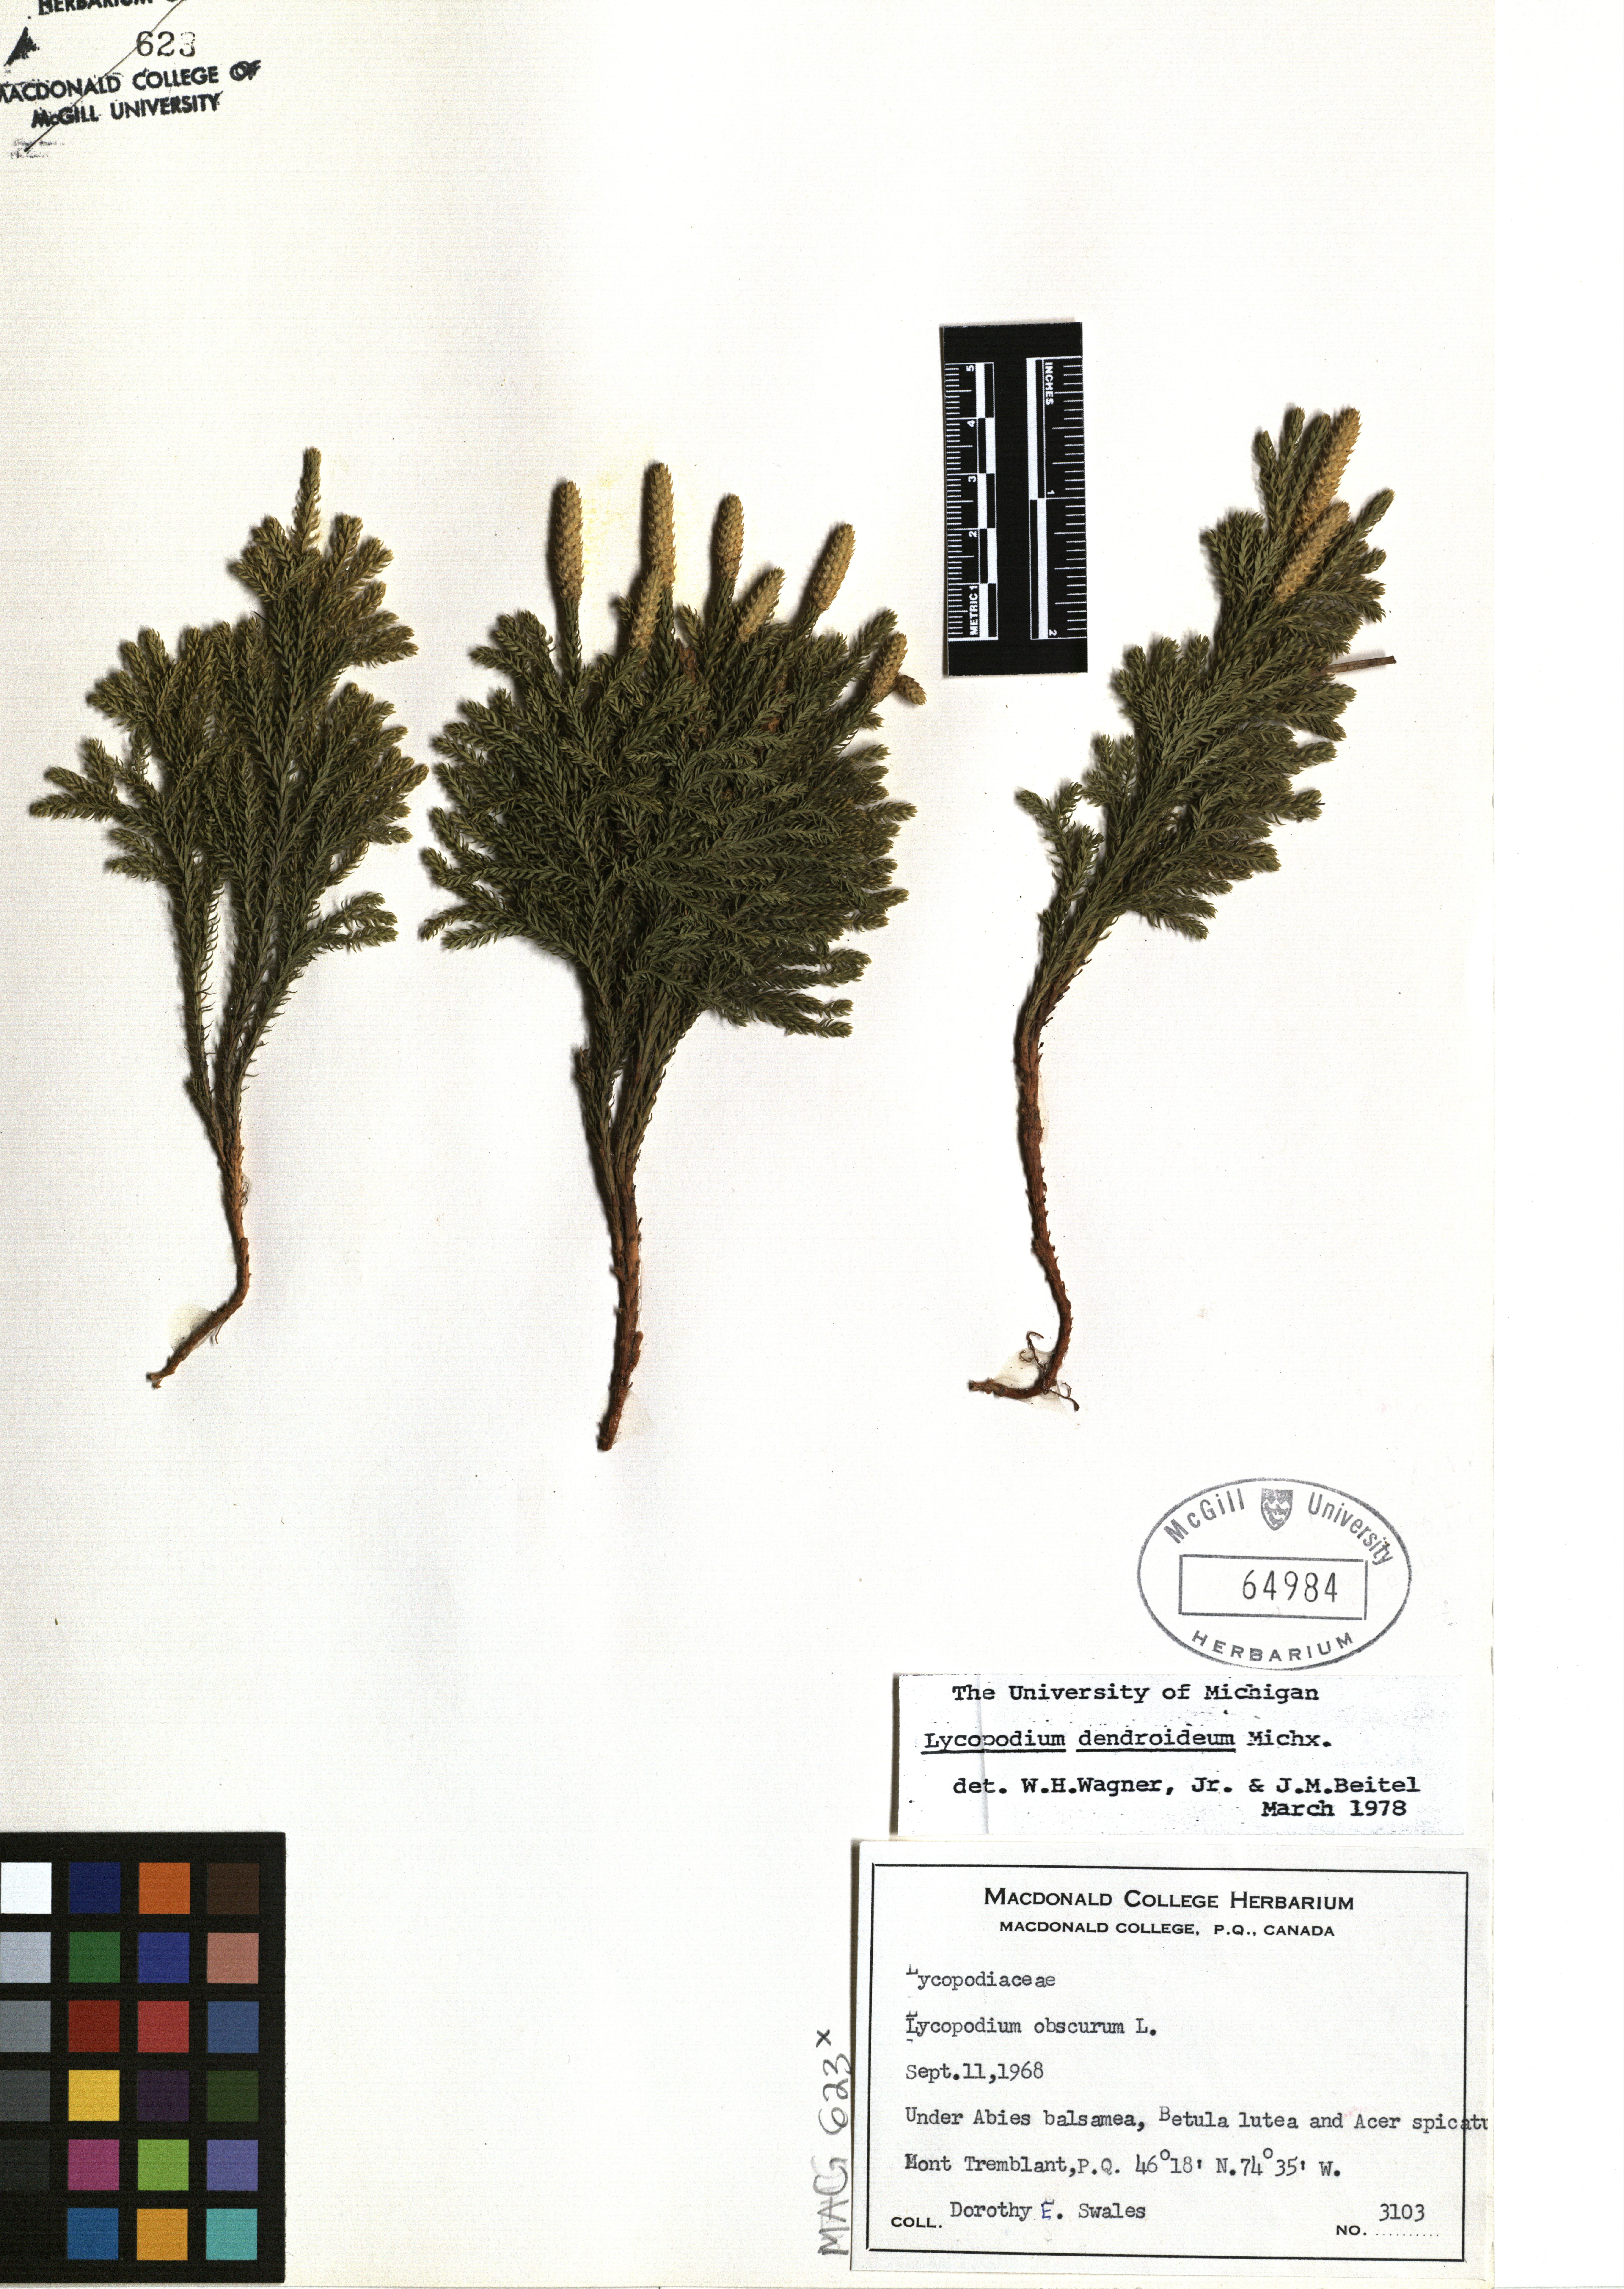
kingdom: Plantae
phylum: Tracheophyta
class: Lycopodiopsida
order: Lycopodiales
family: Lycopodiaceae
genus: Dendrolycopodium
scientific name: Dendrolycopodium dendroideum
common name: Northern tree-clubmoss
